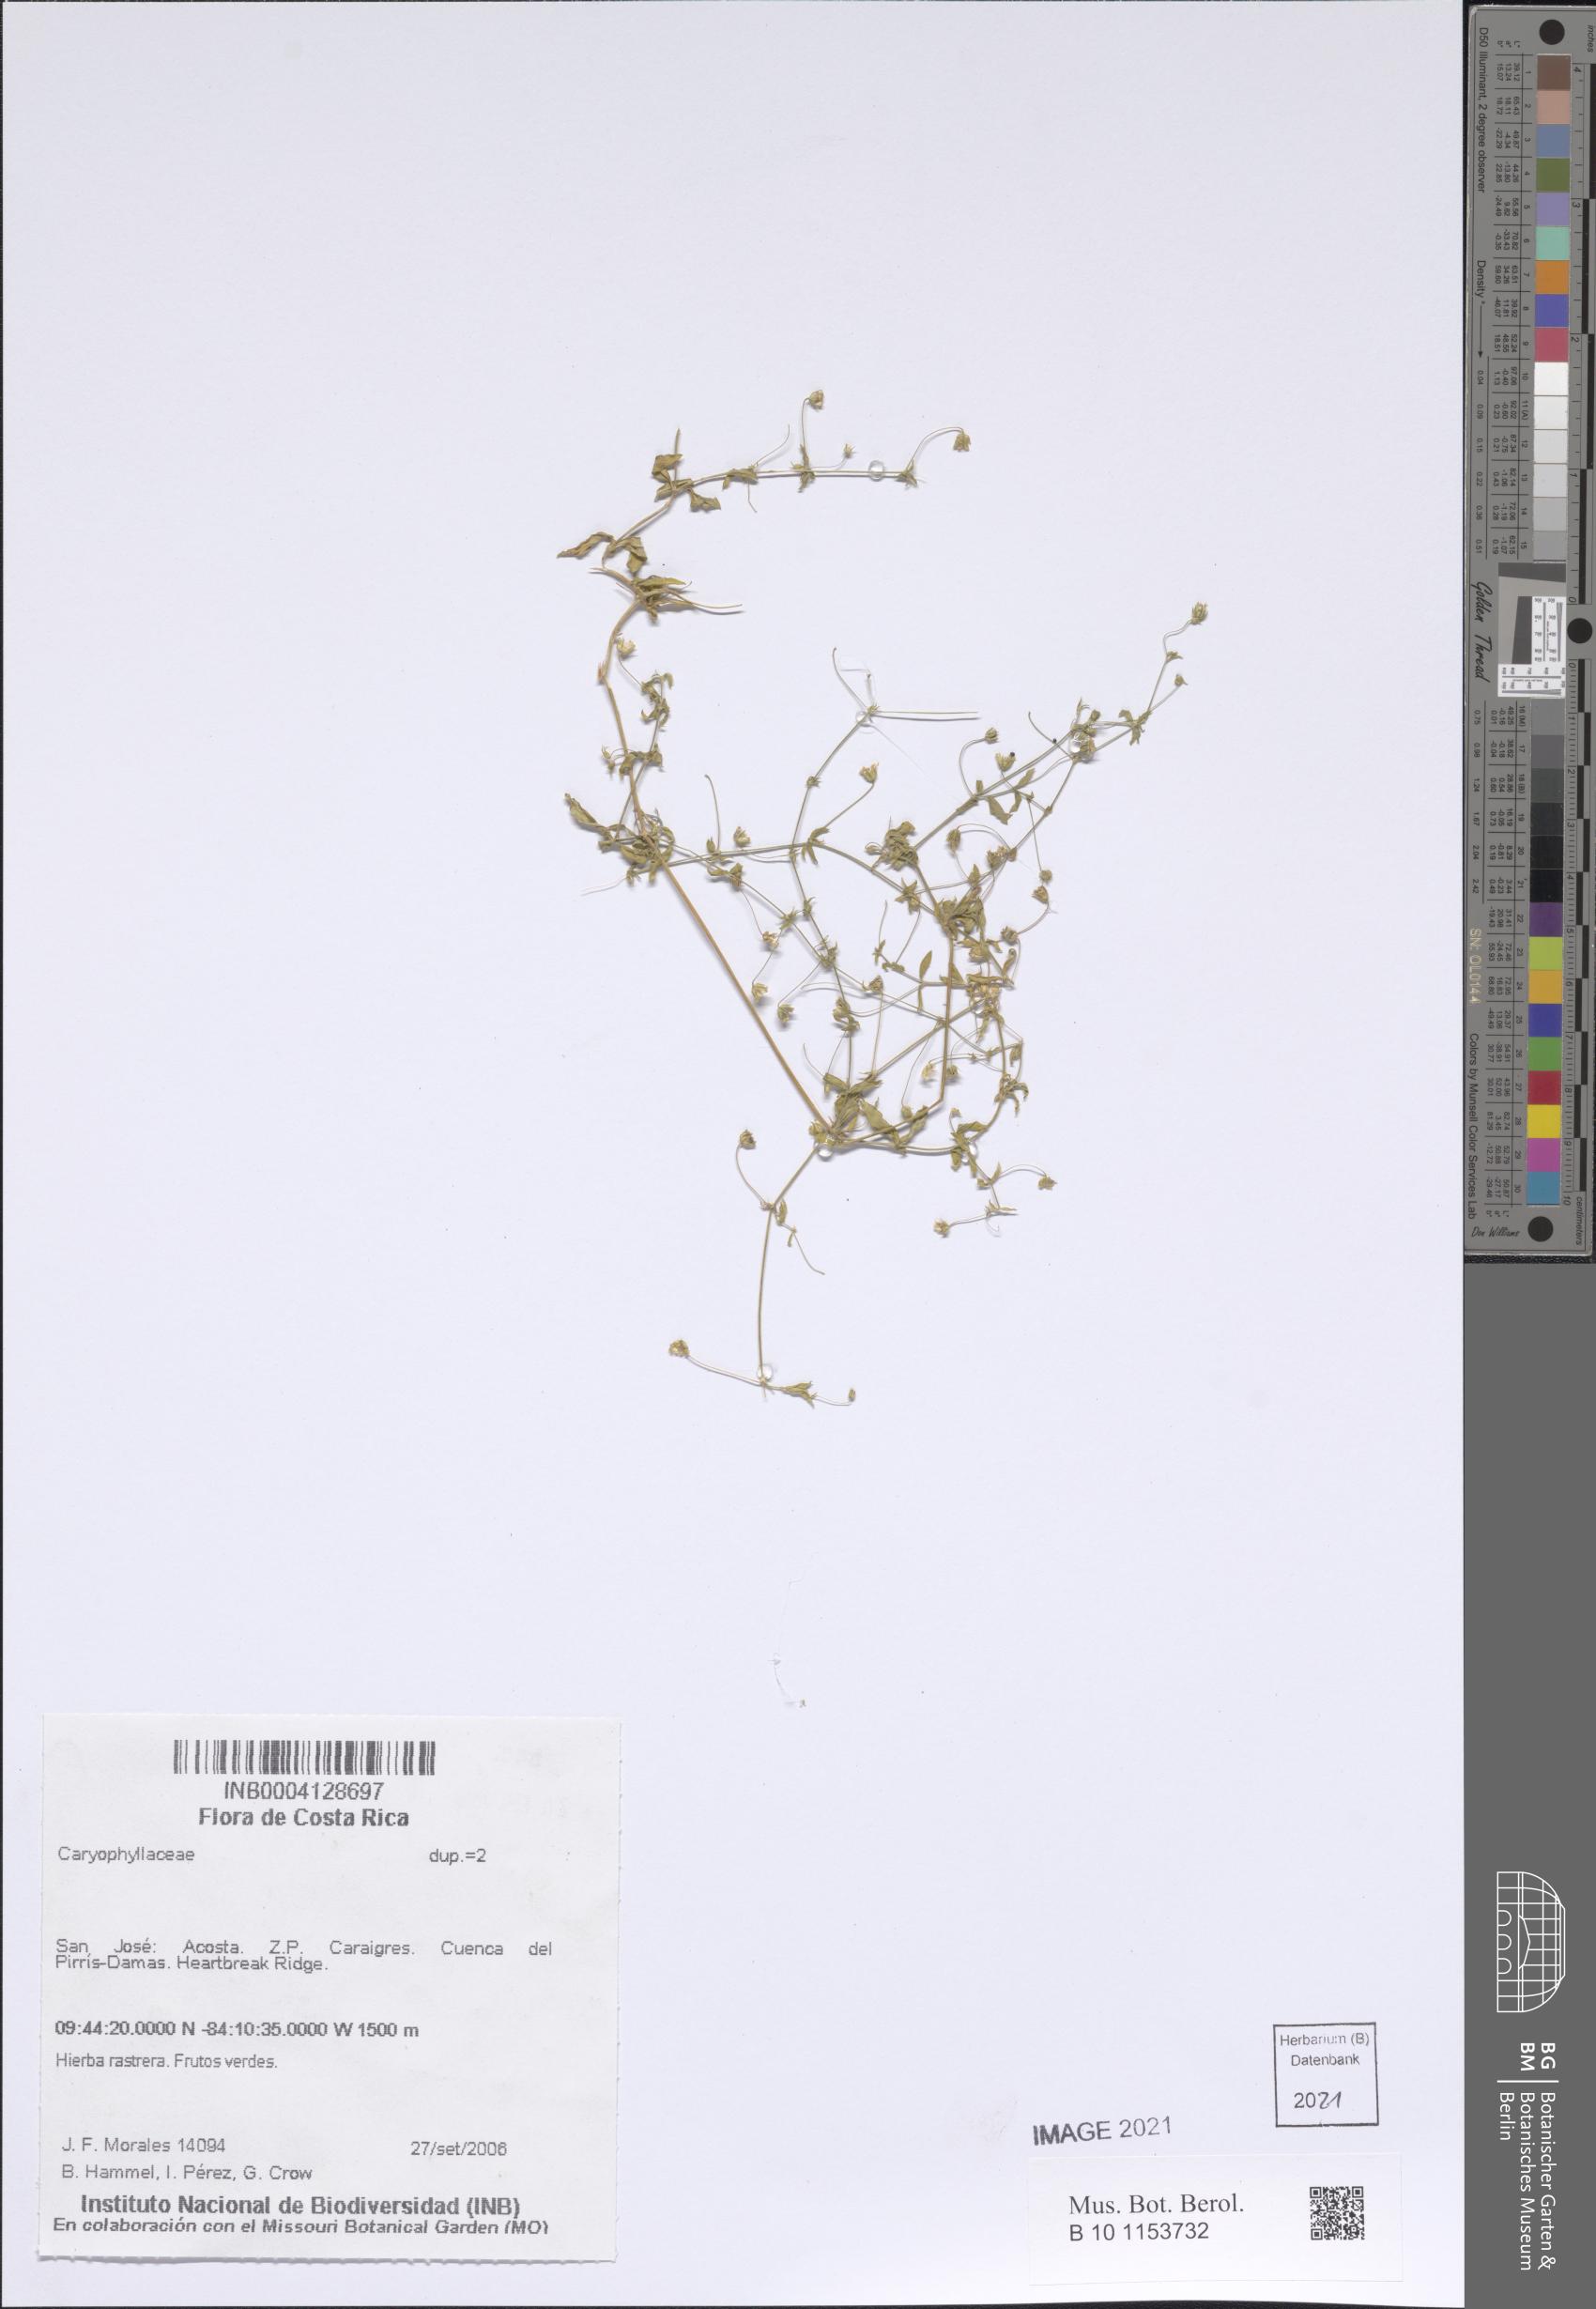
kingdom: Plantae
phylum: Tracheophyta
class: Magnoliopsida
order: Caryophyllales
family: Caryophyllaceae
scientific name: Caryophyllaceae
